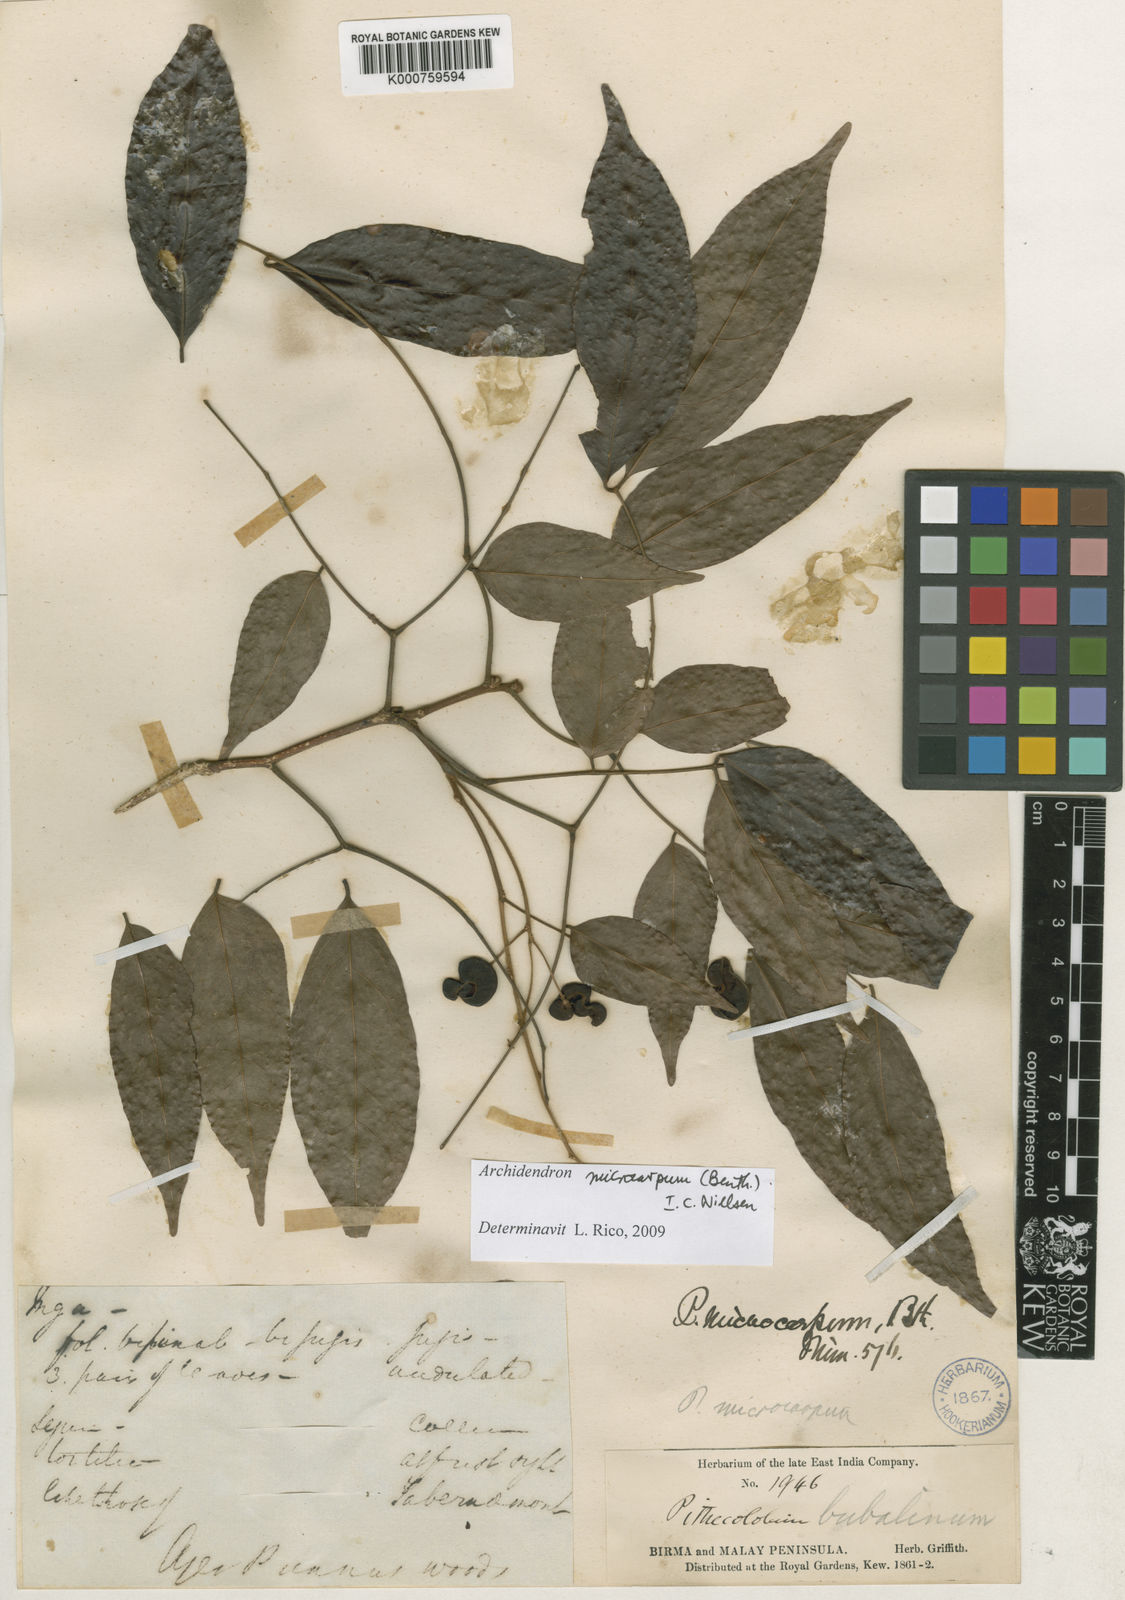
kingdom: Plantae
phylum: Tracheophyta
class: Magnoliopsida
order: Fabales
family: Fabaceae
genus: Archidendron
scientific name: Archidendron microcarpum
